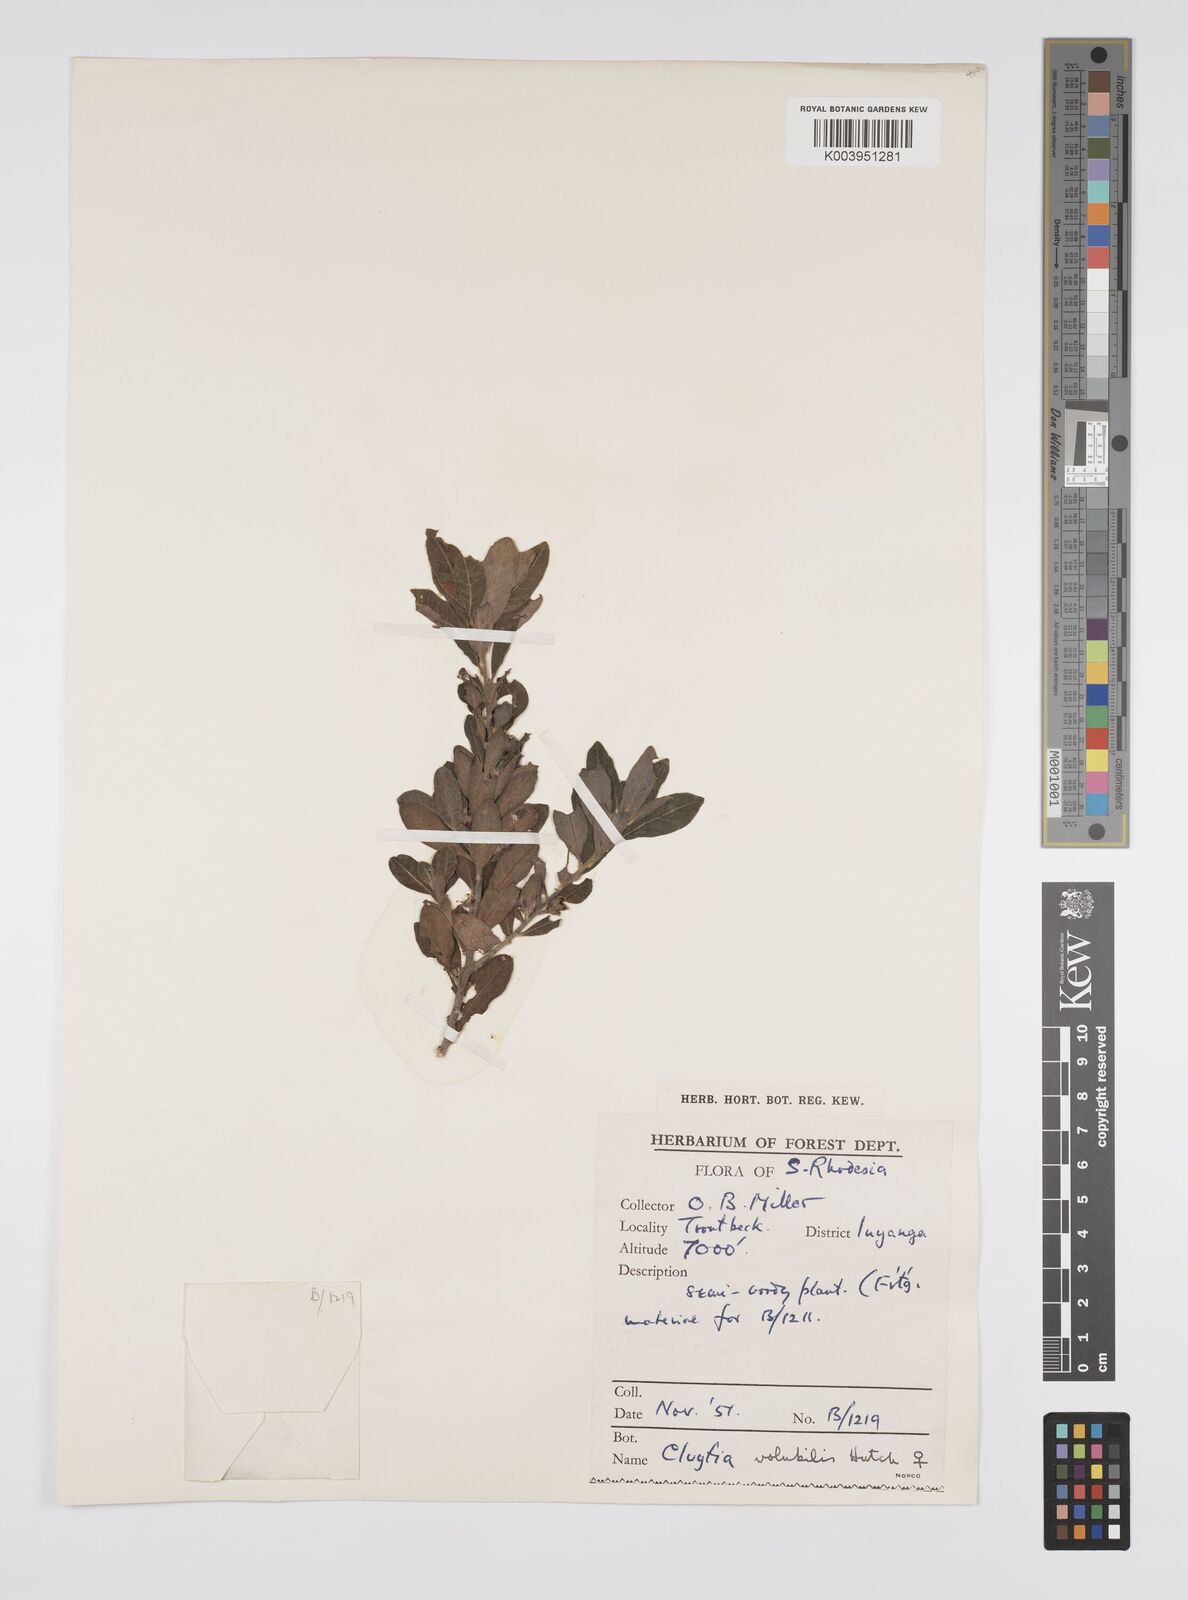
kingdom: Plantae
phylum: Tracheophyta
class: Magnoliopsida
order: Malpighiales
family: Peraceae
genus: Clutia
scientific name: Clutia
